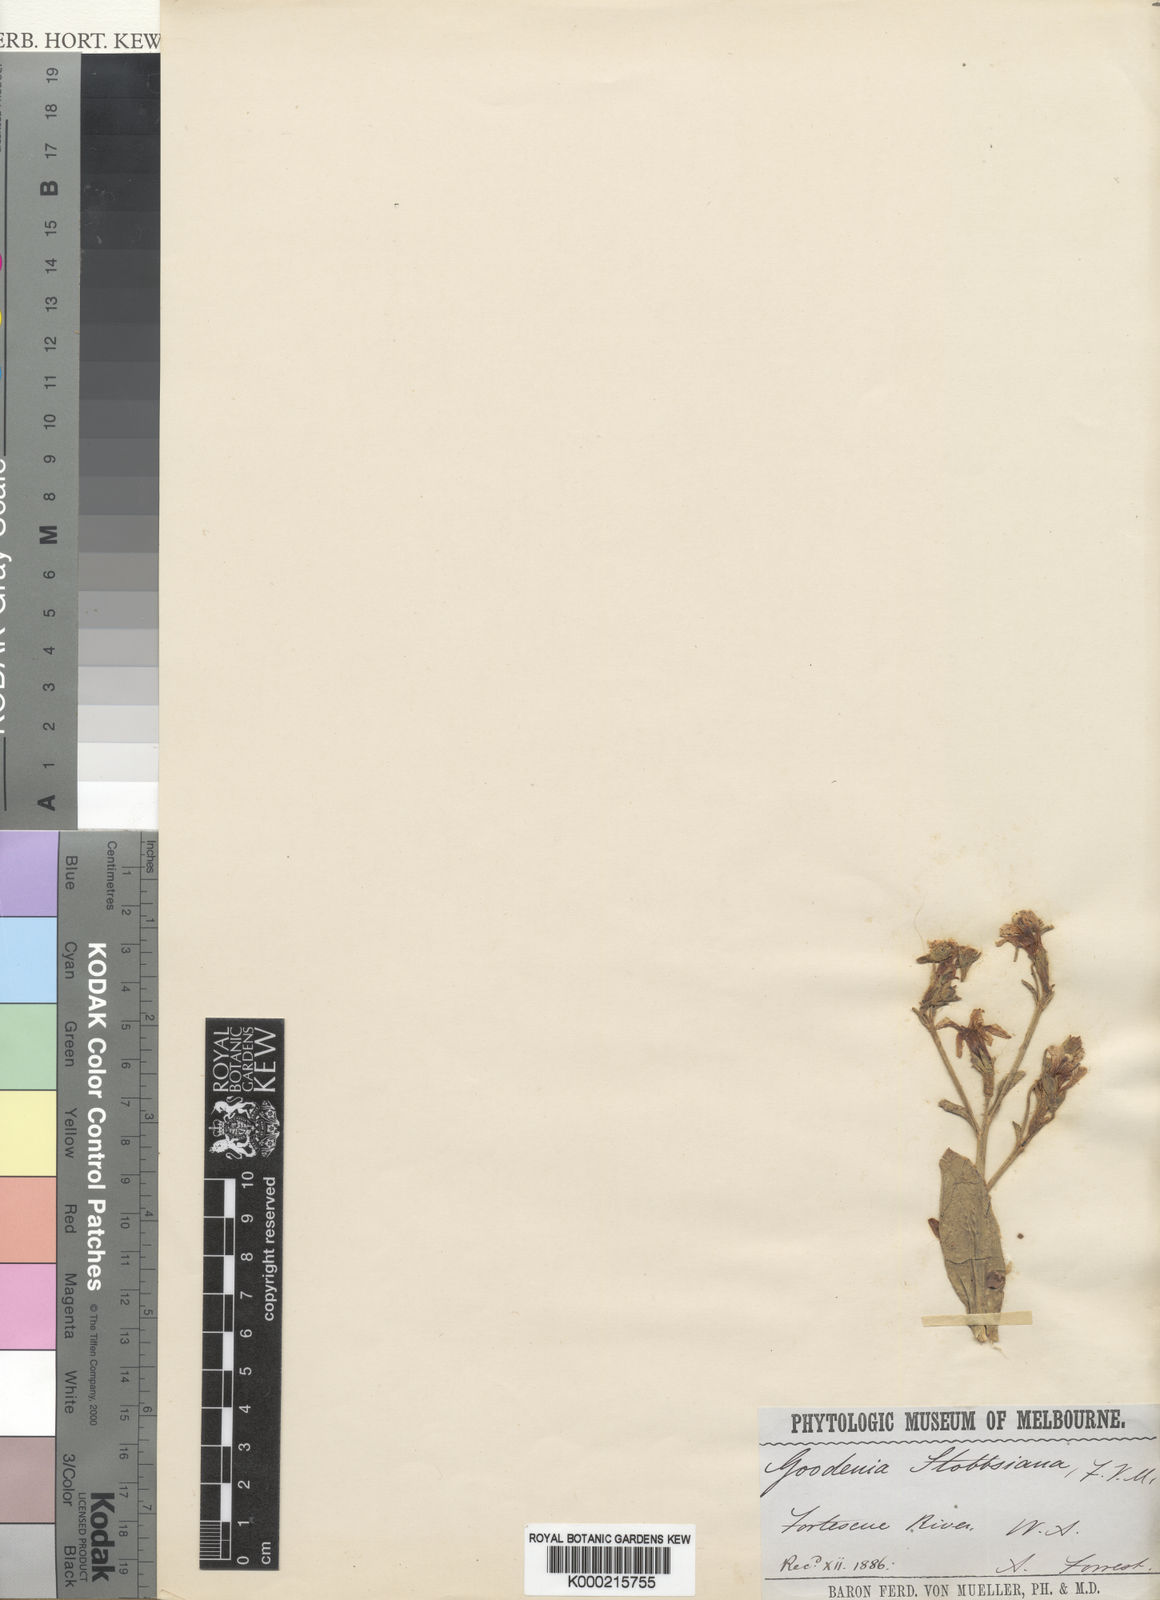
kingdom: Plantae
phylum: Tracheophyta
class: Magnoliopsida
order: Asterales
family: Goodeniaceae
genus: Goodenia
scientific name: Goodenia stobbsiana
